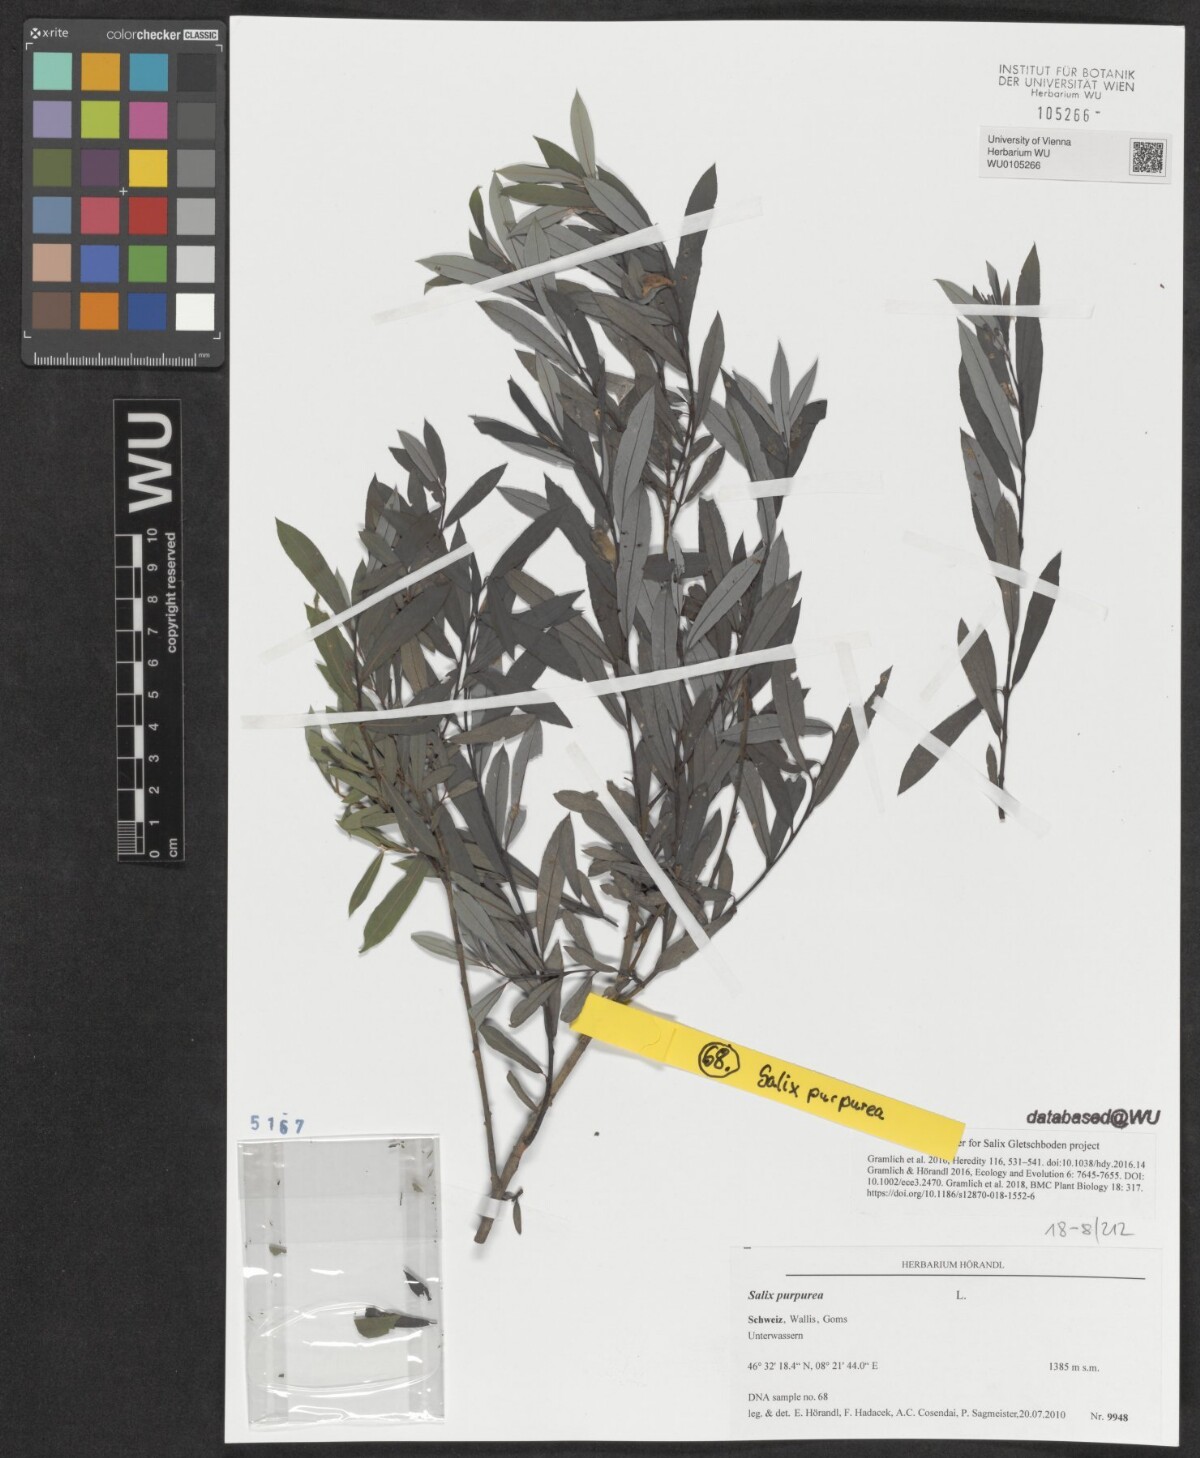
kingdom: Plantae
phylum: Tracheophyta
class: Magnoliopsida
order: Malpighiales
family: Salicaceae
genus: Salix
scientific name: Salix purpurea
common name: Purple willow
